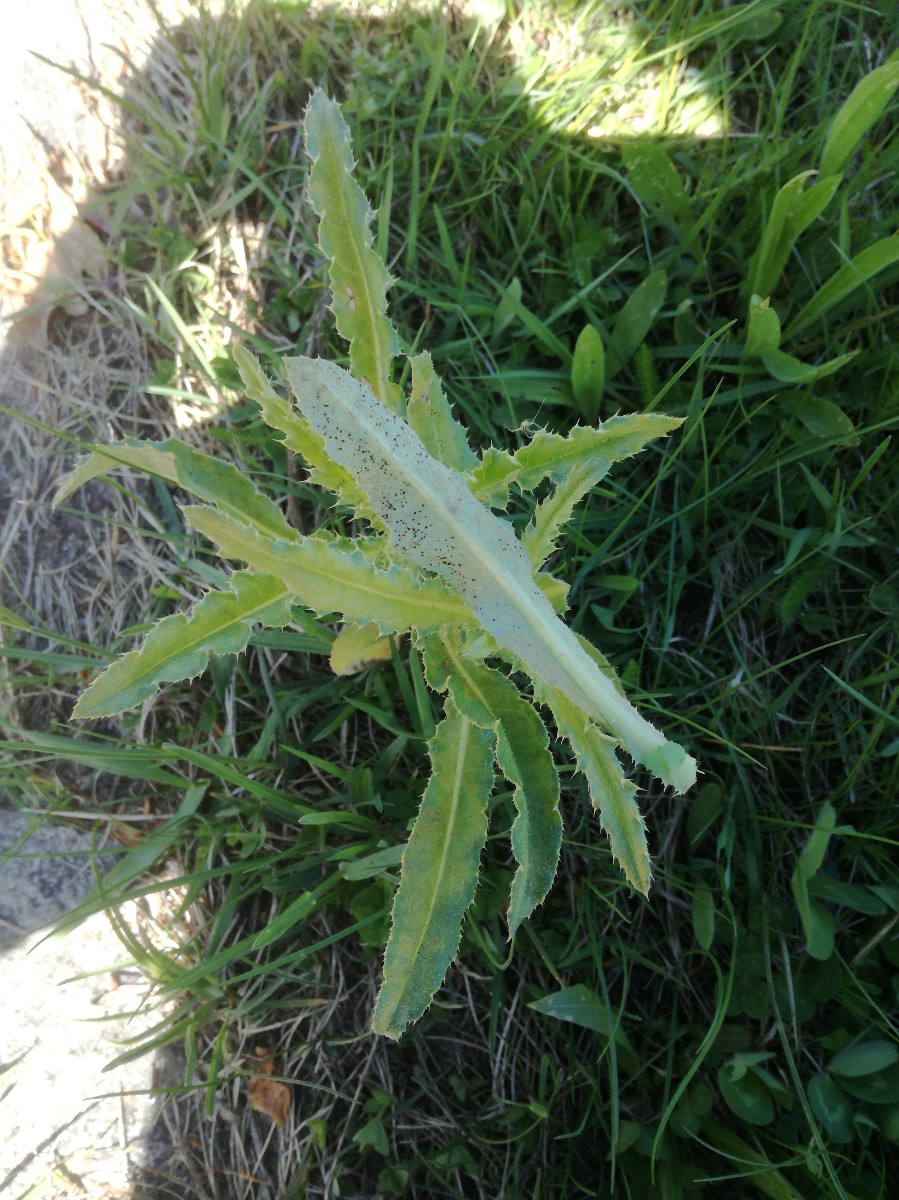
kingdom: Fungi
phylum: Basidiomycota
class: Pucciniomycetes
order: Pucciniales
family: Pucciniaceae
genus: Puccinia
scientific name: Puccinia suaveolens
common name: tidsel-tvecellerust
